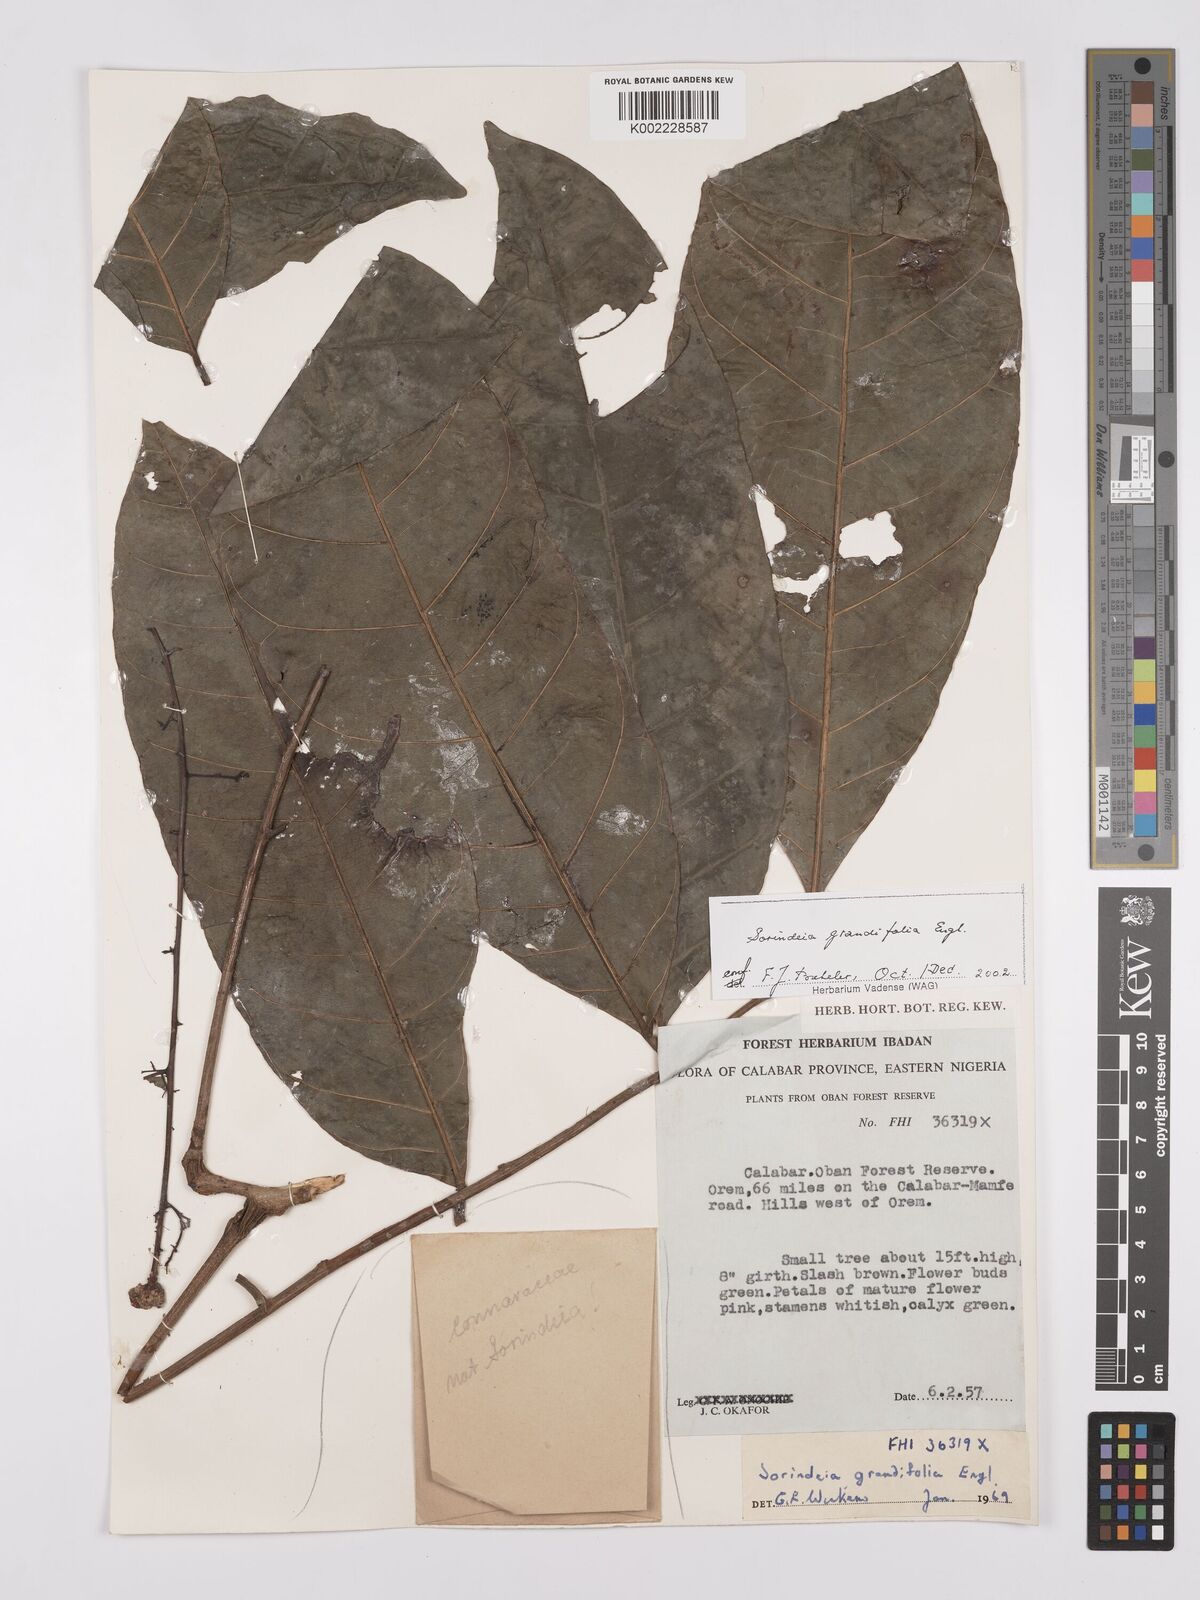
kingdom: Plantae
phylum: Tracheophyta
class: Magnoliopsida
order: Sapindales
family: Anacardiaceae
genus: Sorindeia
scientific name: Sorindeia grandifolia
